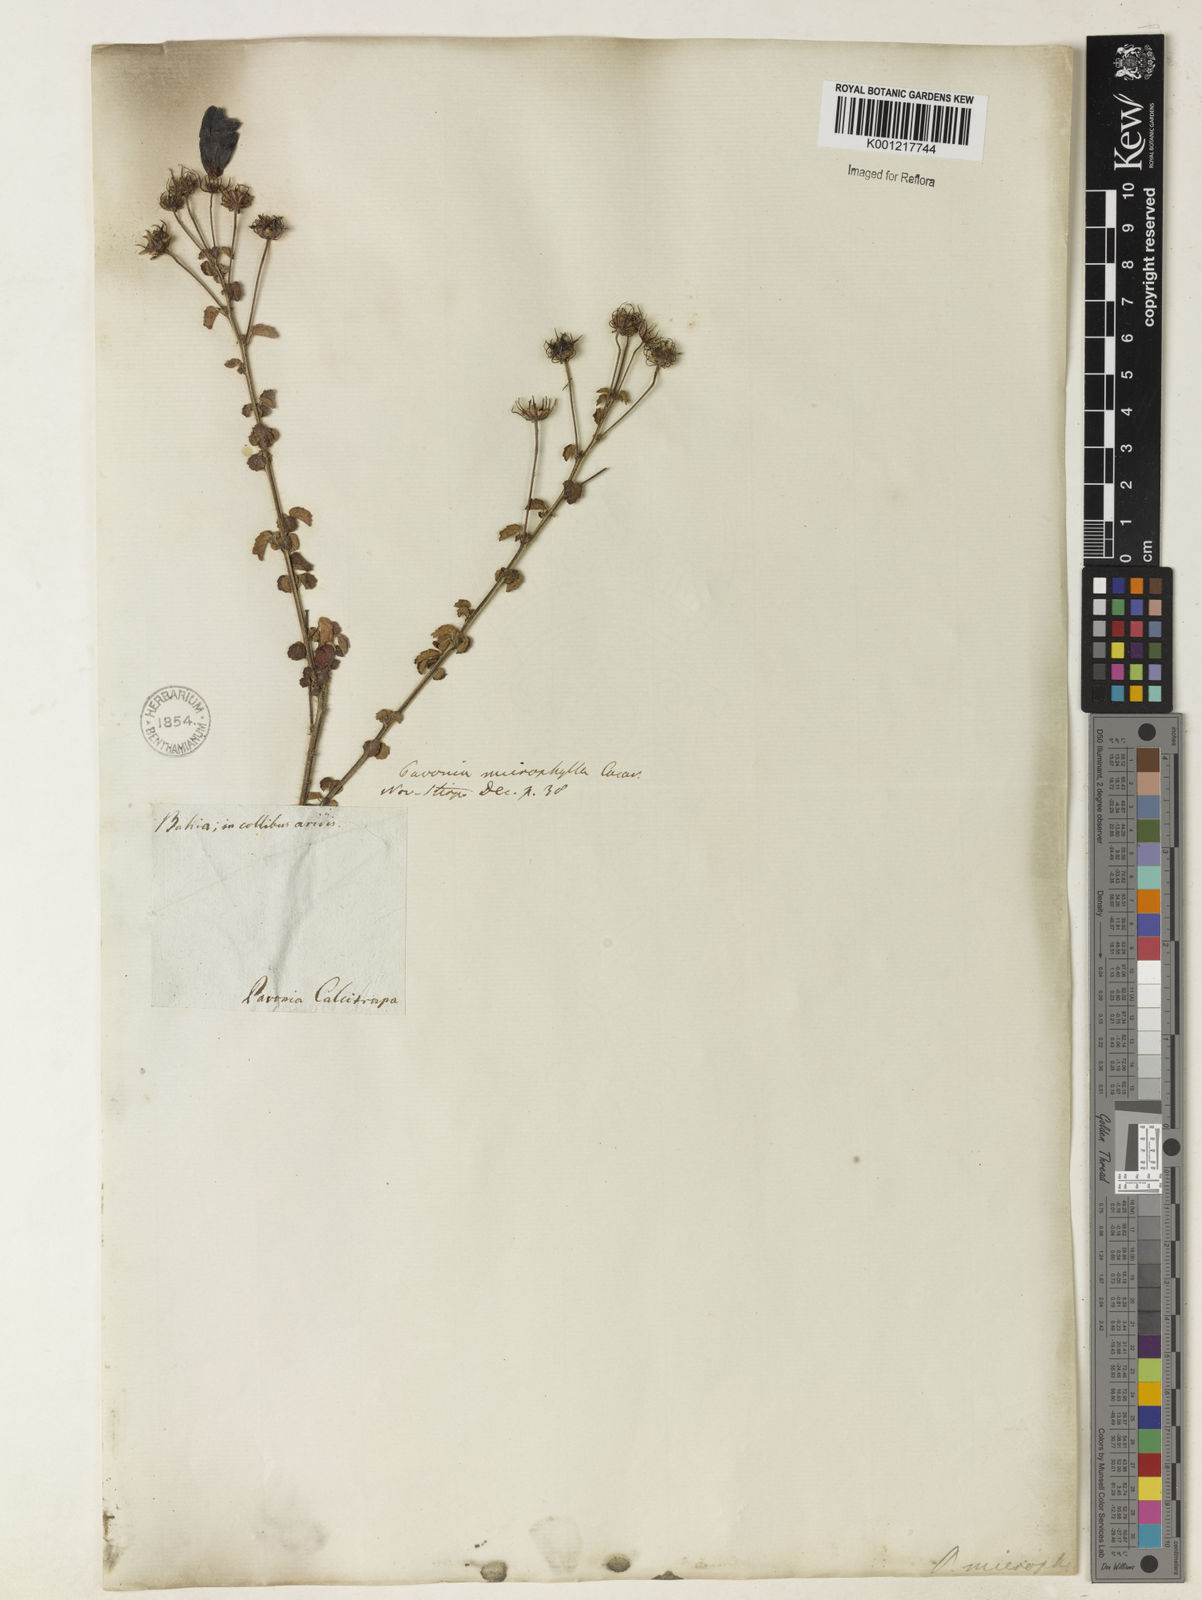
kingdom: Plantae
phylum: Tracheophyta
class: Magnoliopsida
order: Malvales
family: Malvaceae
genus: Pavonia
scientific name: Pavonia martii
